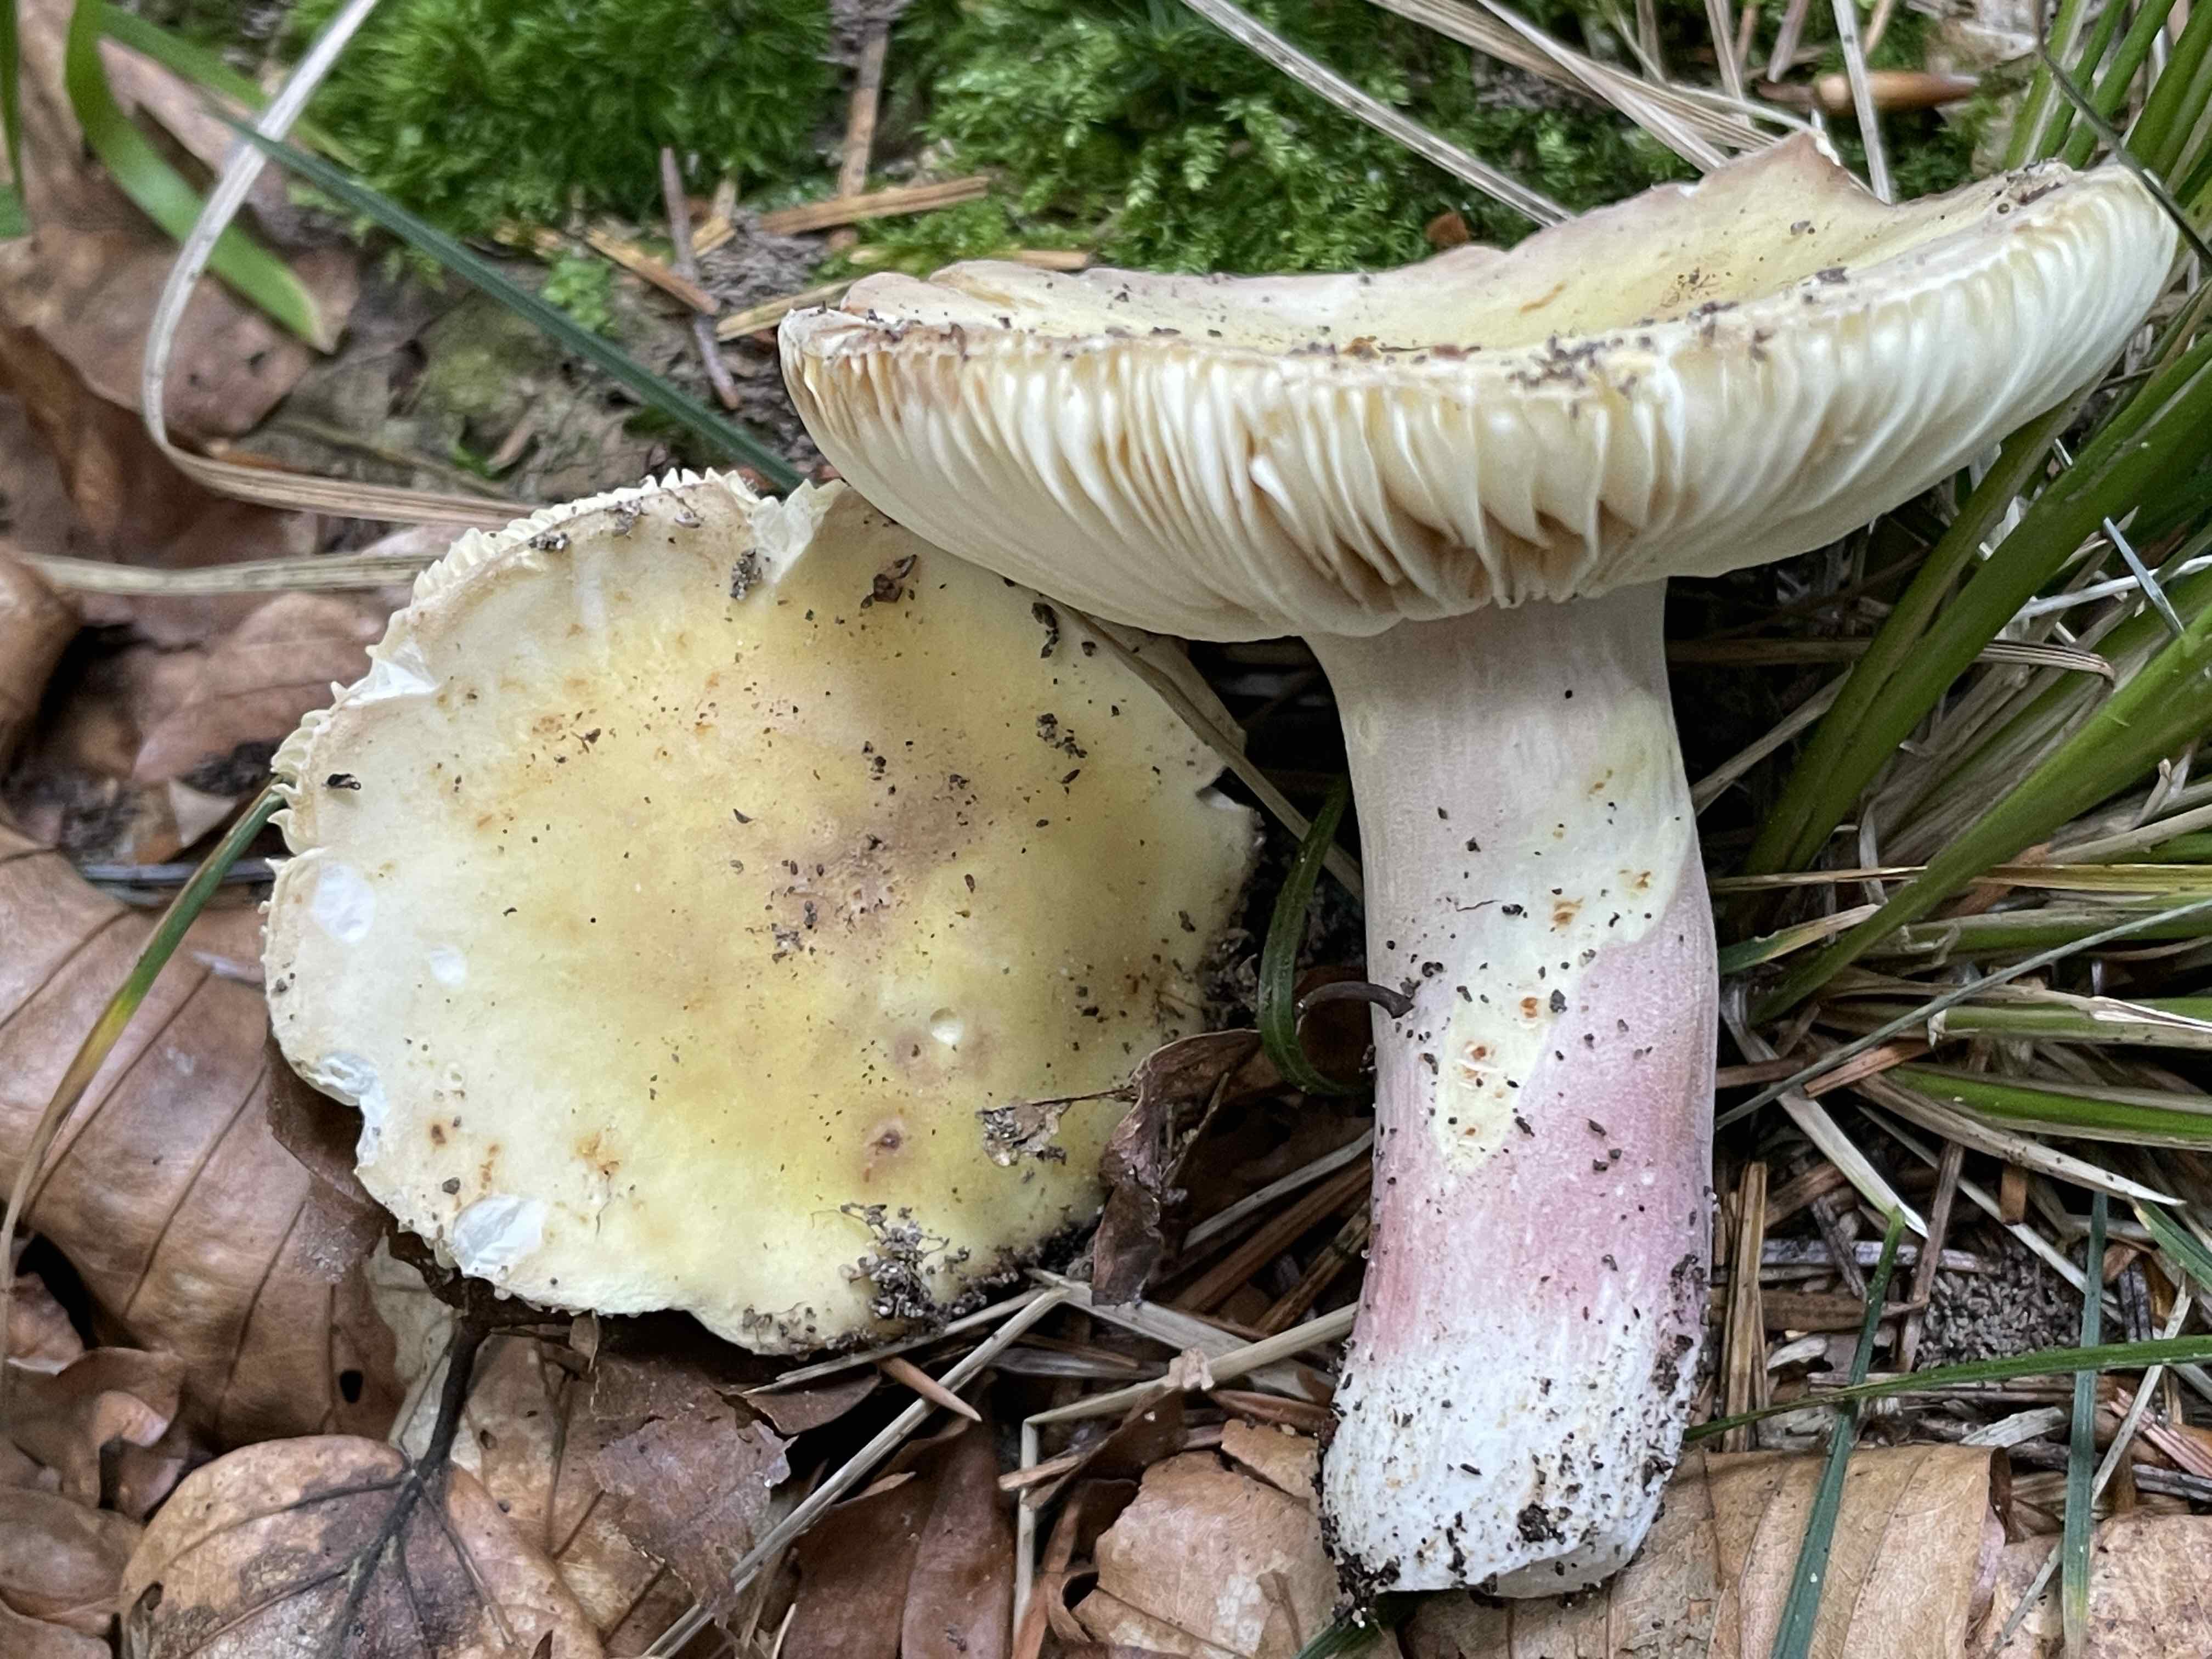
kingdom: Fungi
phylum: Basidiomycota
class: Agaricomycetes
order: Russulales
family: Russulaceae
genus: Russula
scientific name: Russula violeipes
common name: ferskengul skørhat
